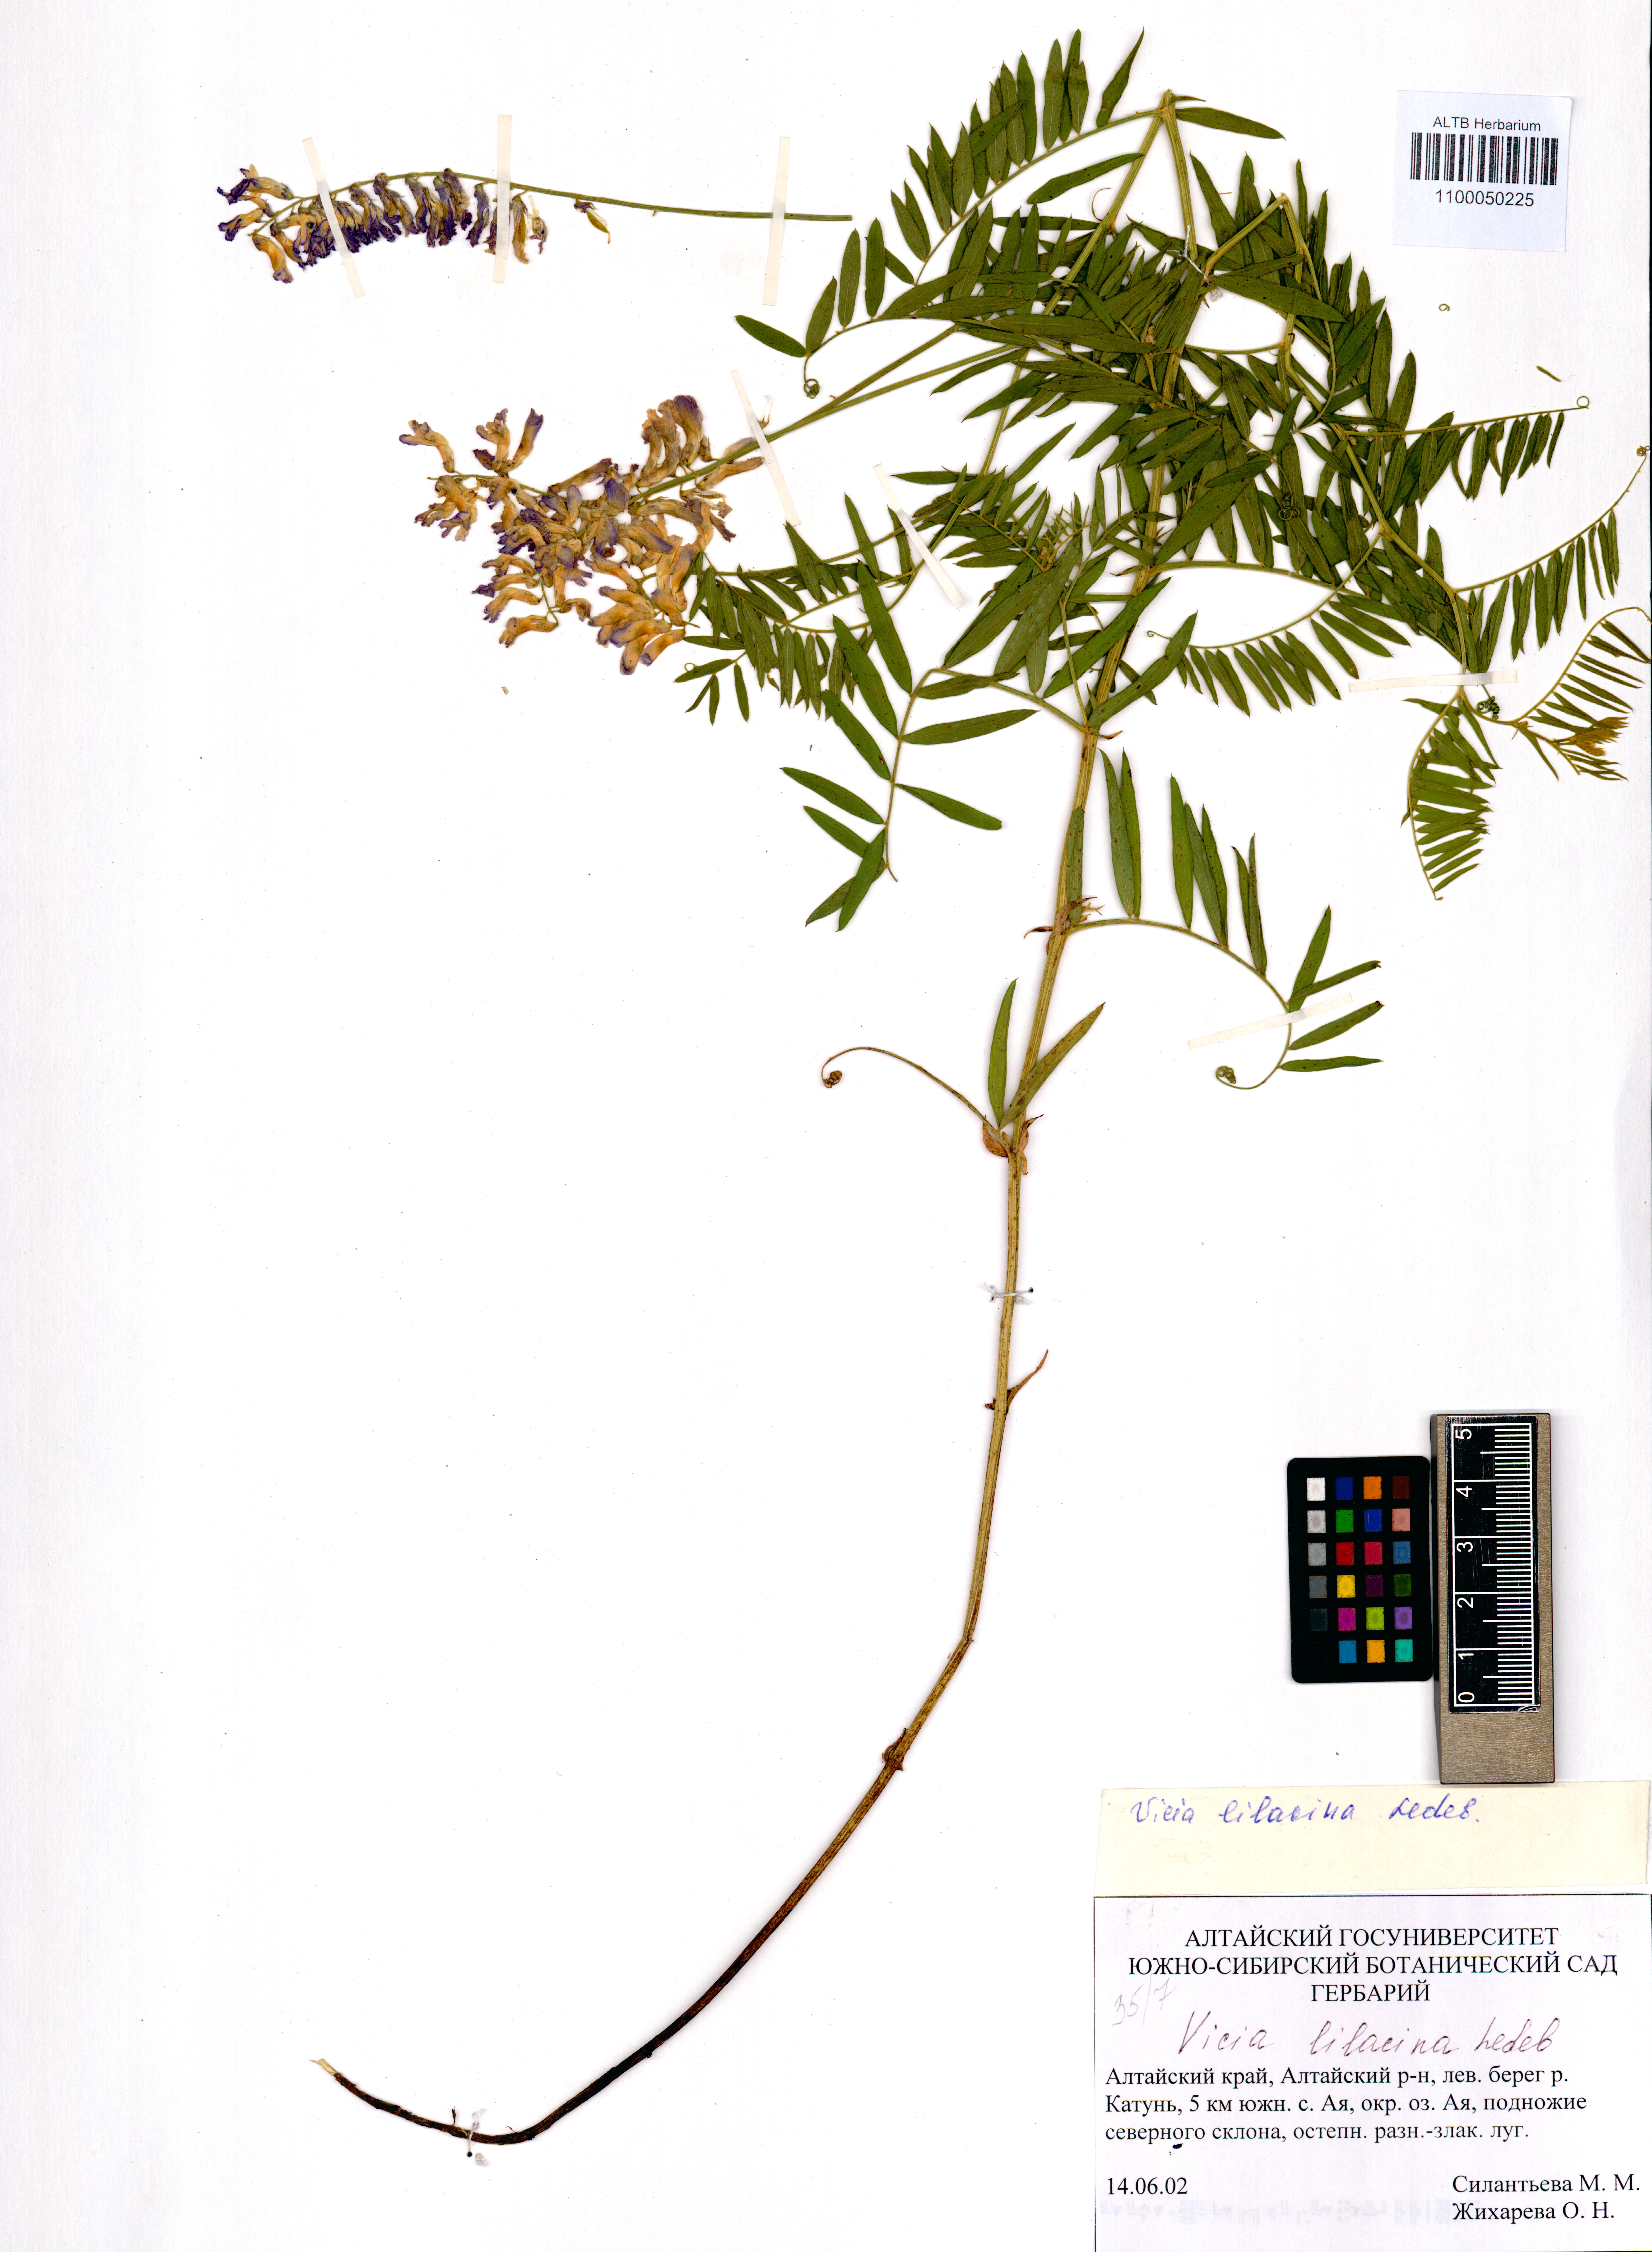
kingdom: Plantae
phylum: Tracheophyta
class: Magnoliopsida
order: Fabales
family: Fabaceae
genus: Vicia
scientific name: Vicia lilacina
